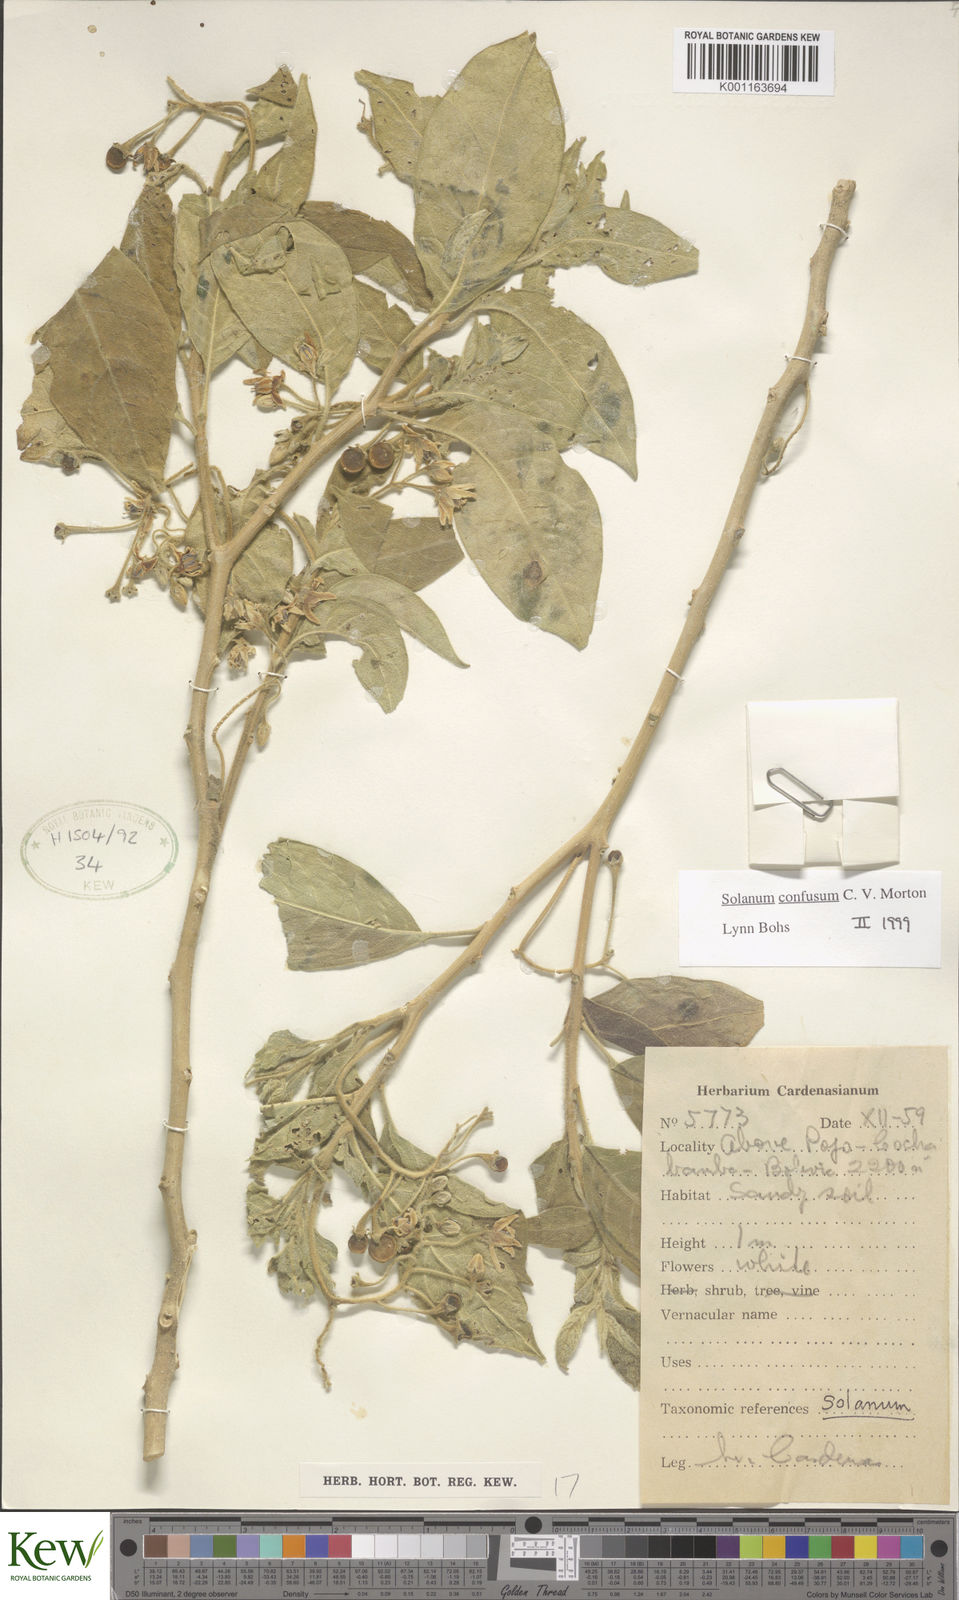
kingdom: Plantae
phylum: Tracheophyta
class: Magnoliopsida
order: Solanales
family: Solanaceae
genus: Solanum
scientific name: Solanum confusum
